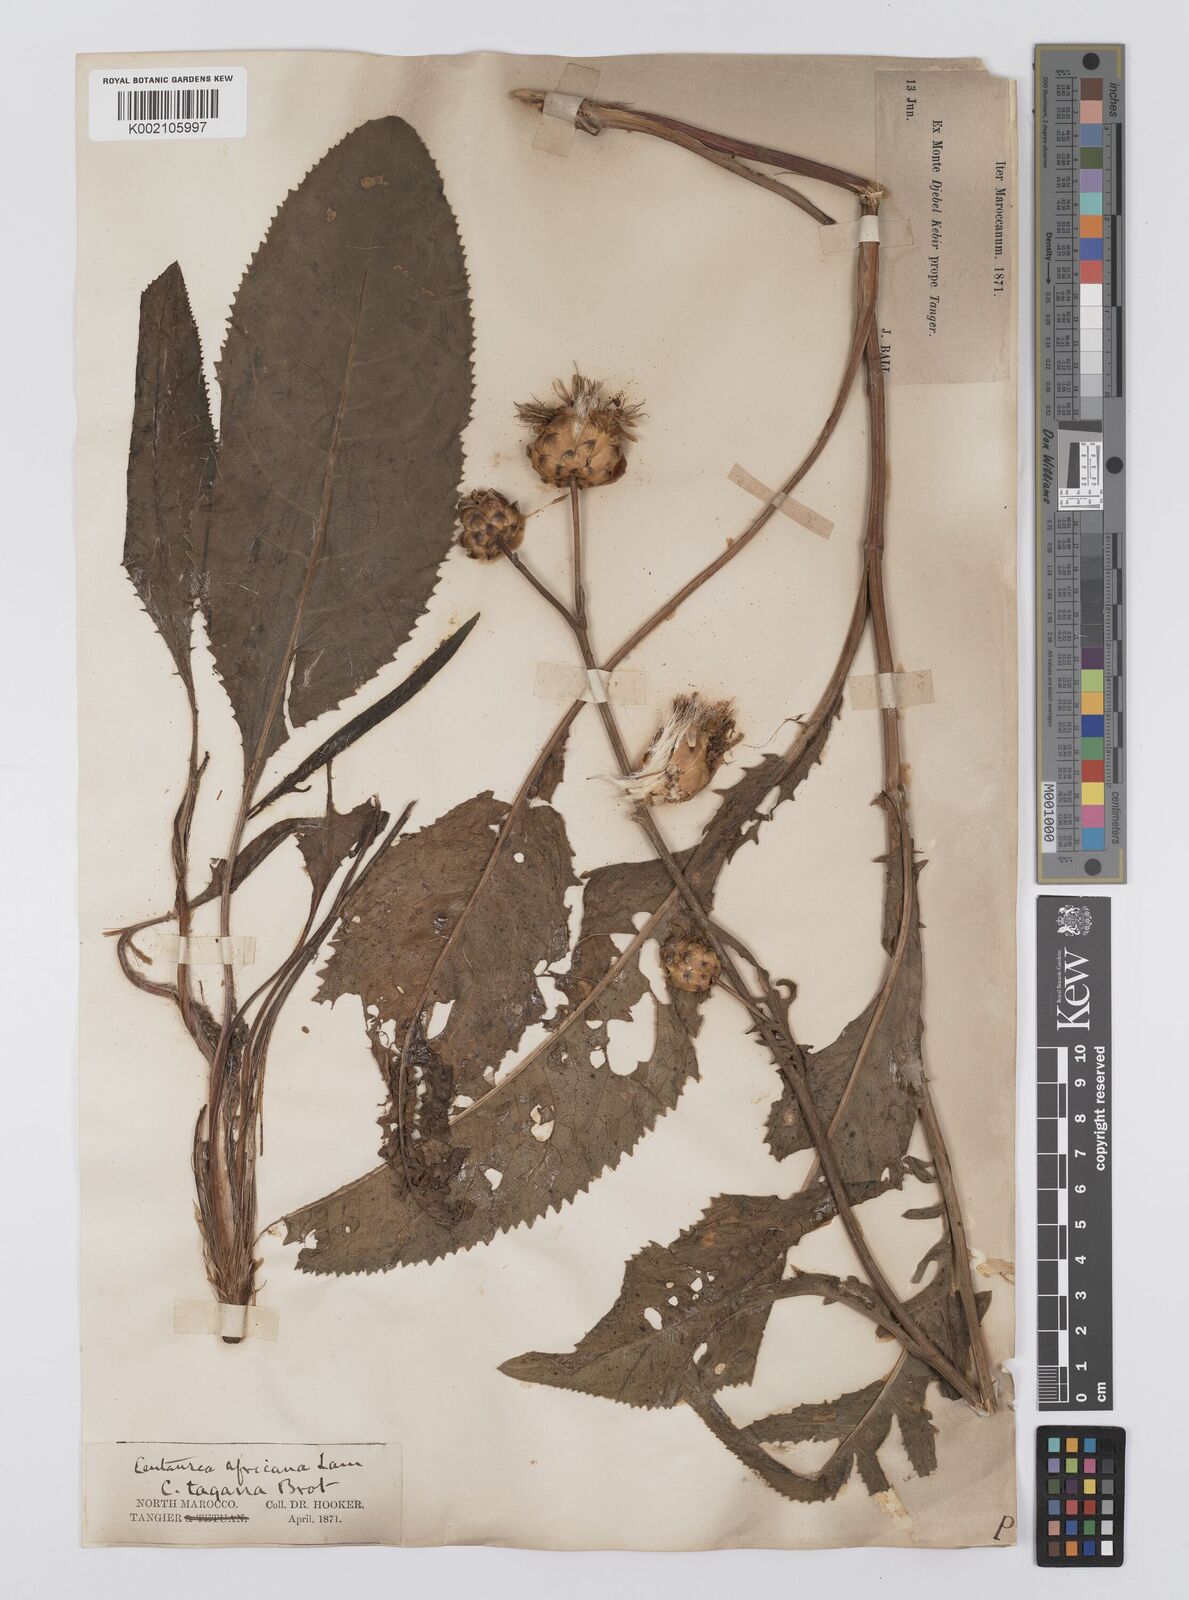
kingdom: Plantae
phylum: Tracheophyta
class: Magnoliopsida
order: Asterales
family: Asteraceae
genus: Rhaponticoides
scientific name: Rhaponticoides africana
